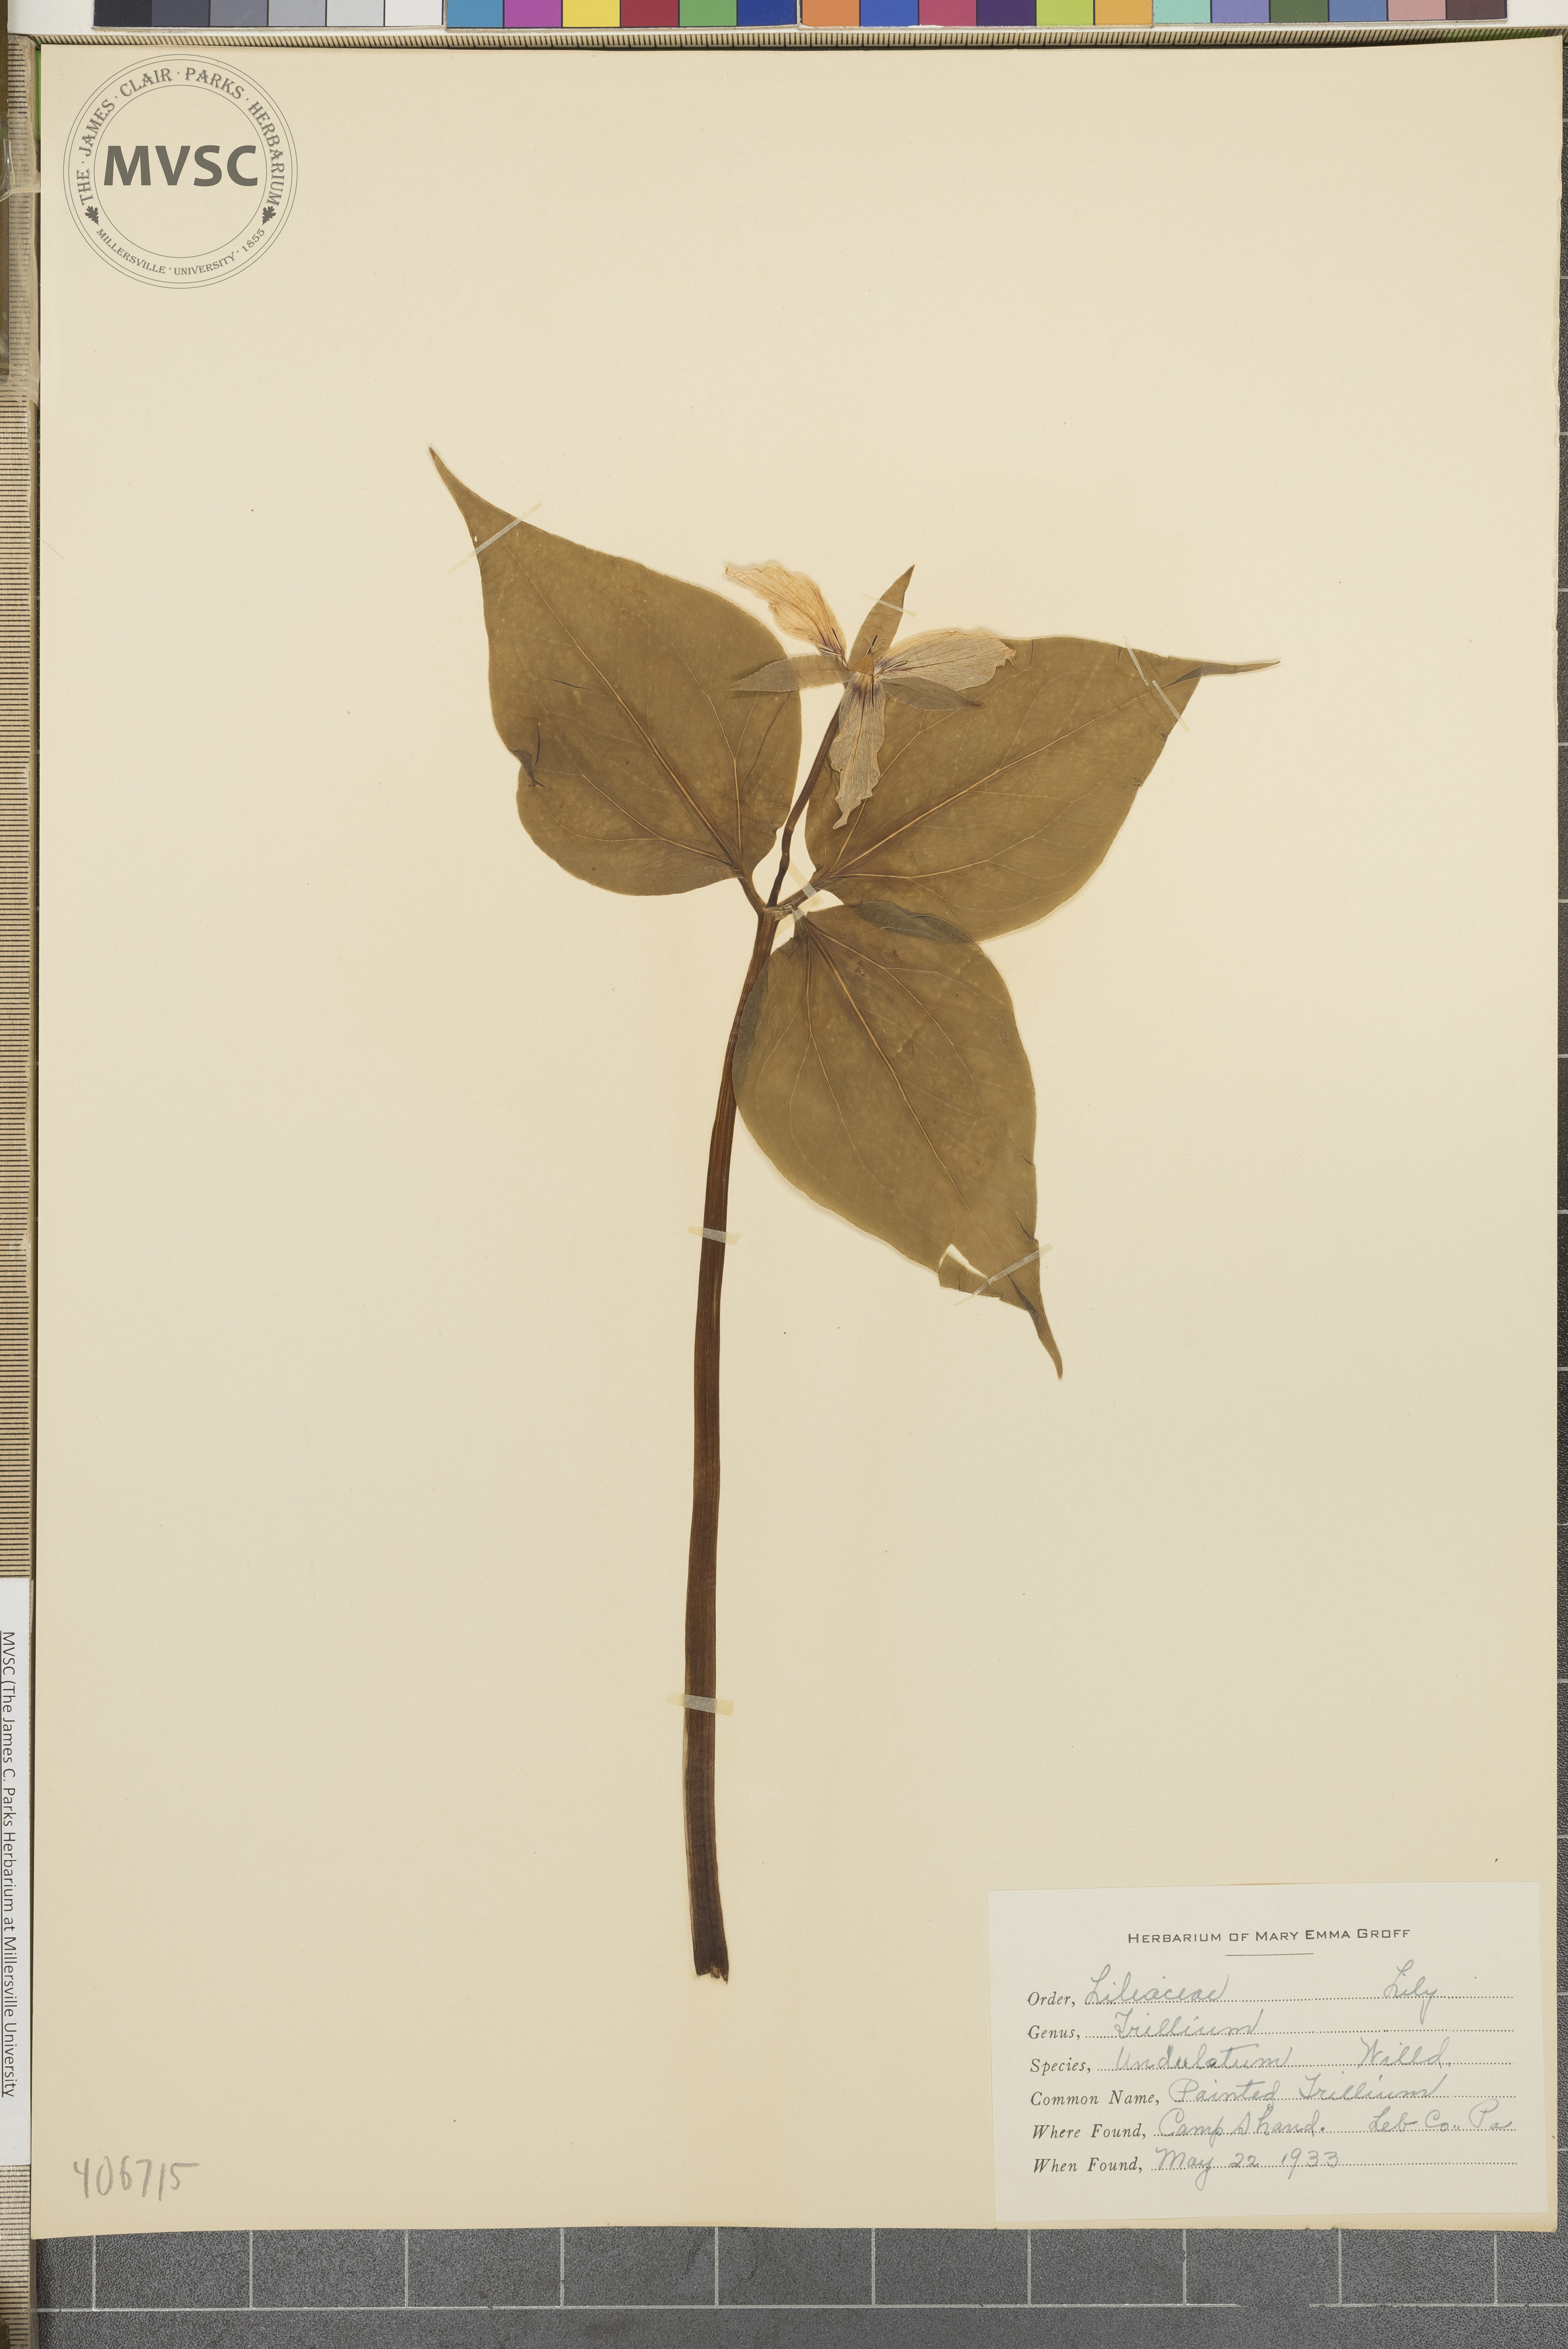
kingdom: Plantae
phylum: Tracheophyta
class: Liliopsida
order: Liliales
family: Melanthiaceae
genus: Trillium
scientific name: Trillium undulatum
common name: Painted Trillium
